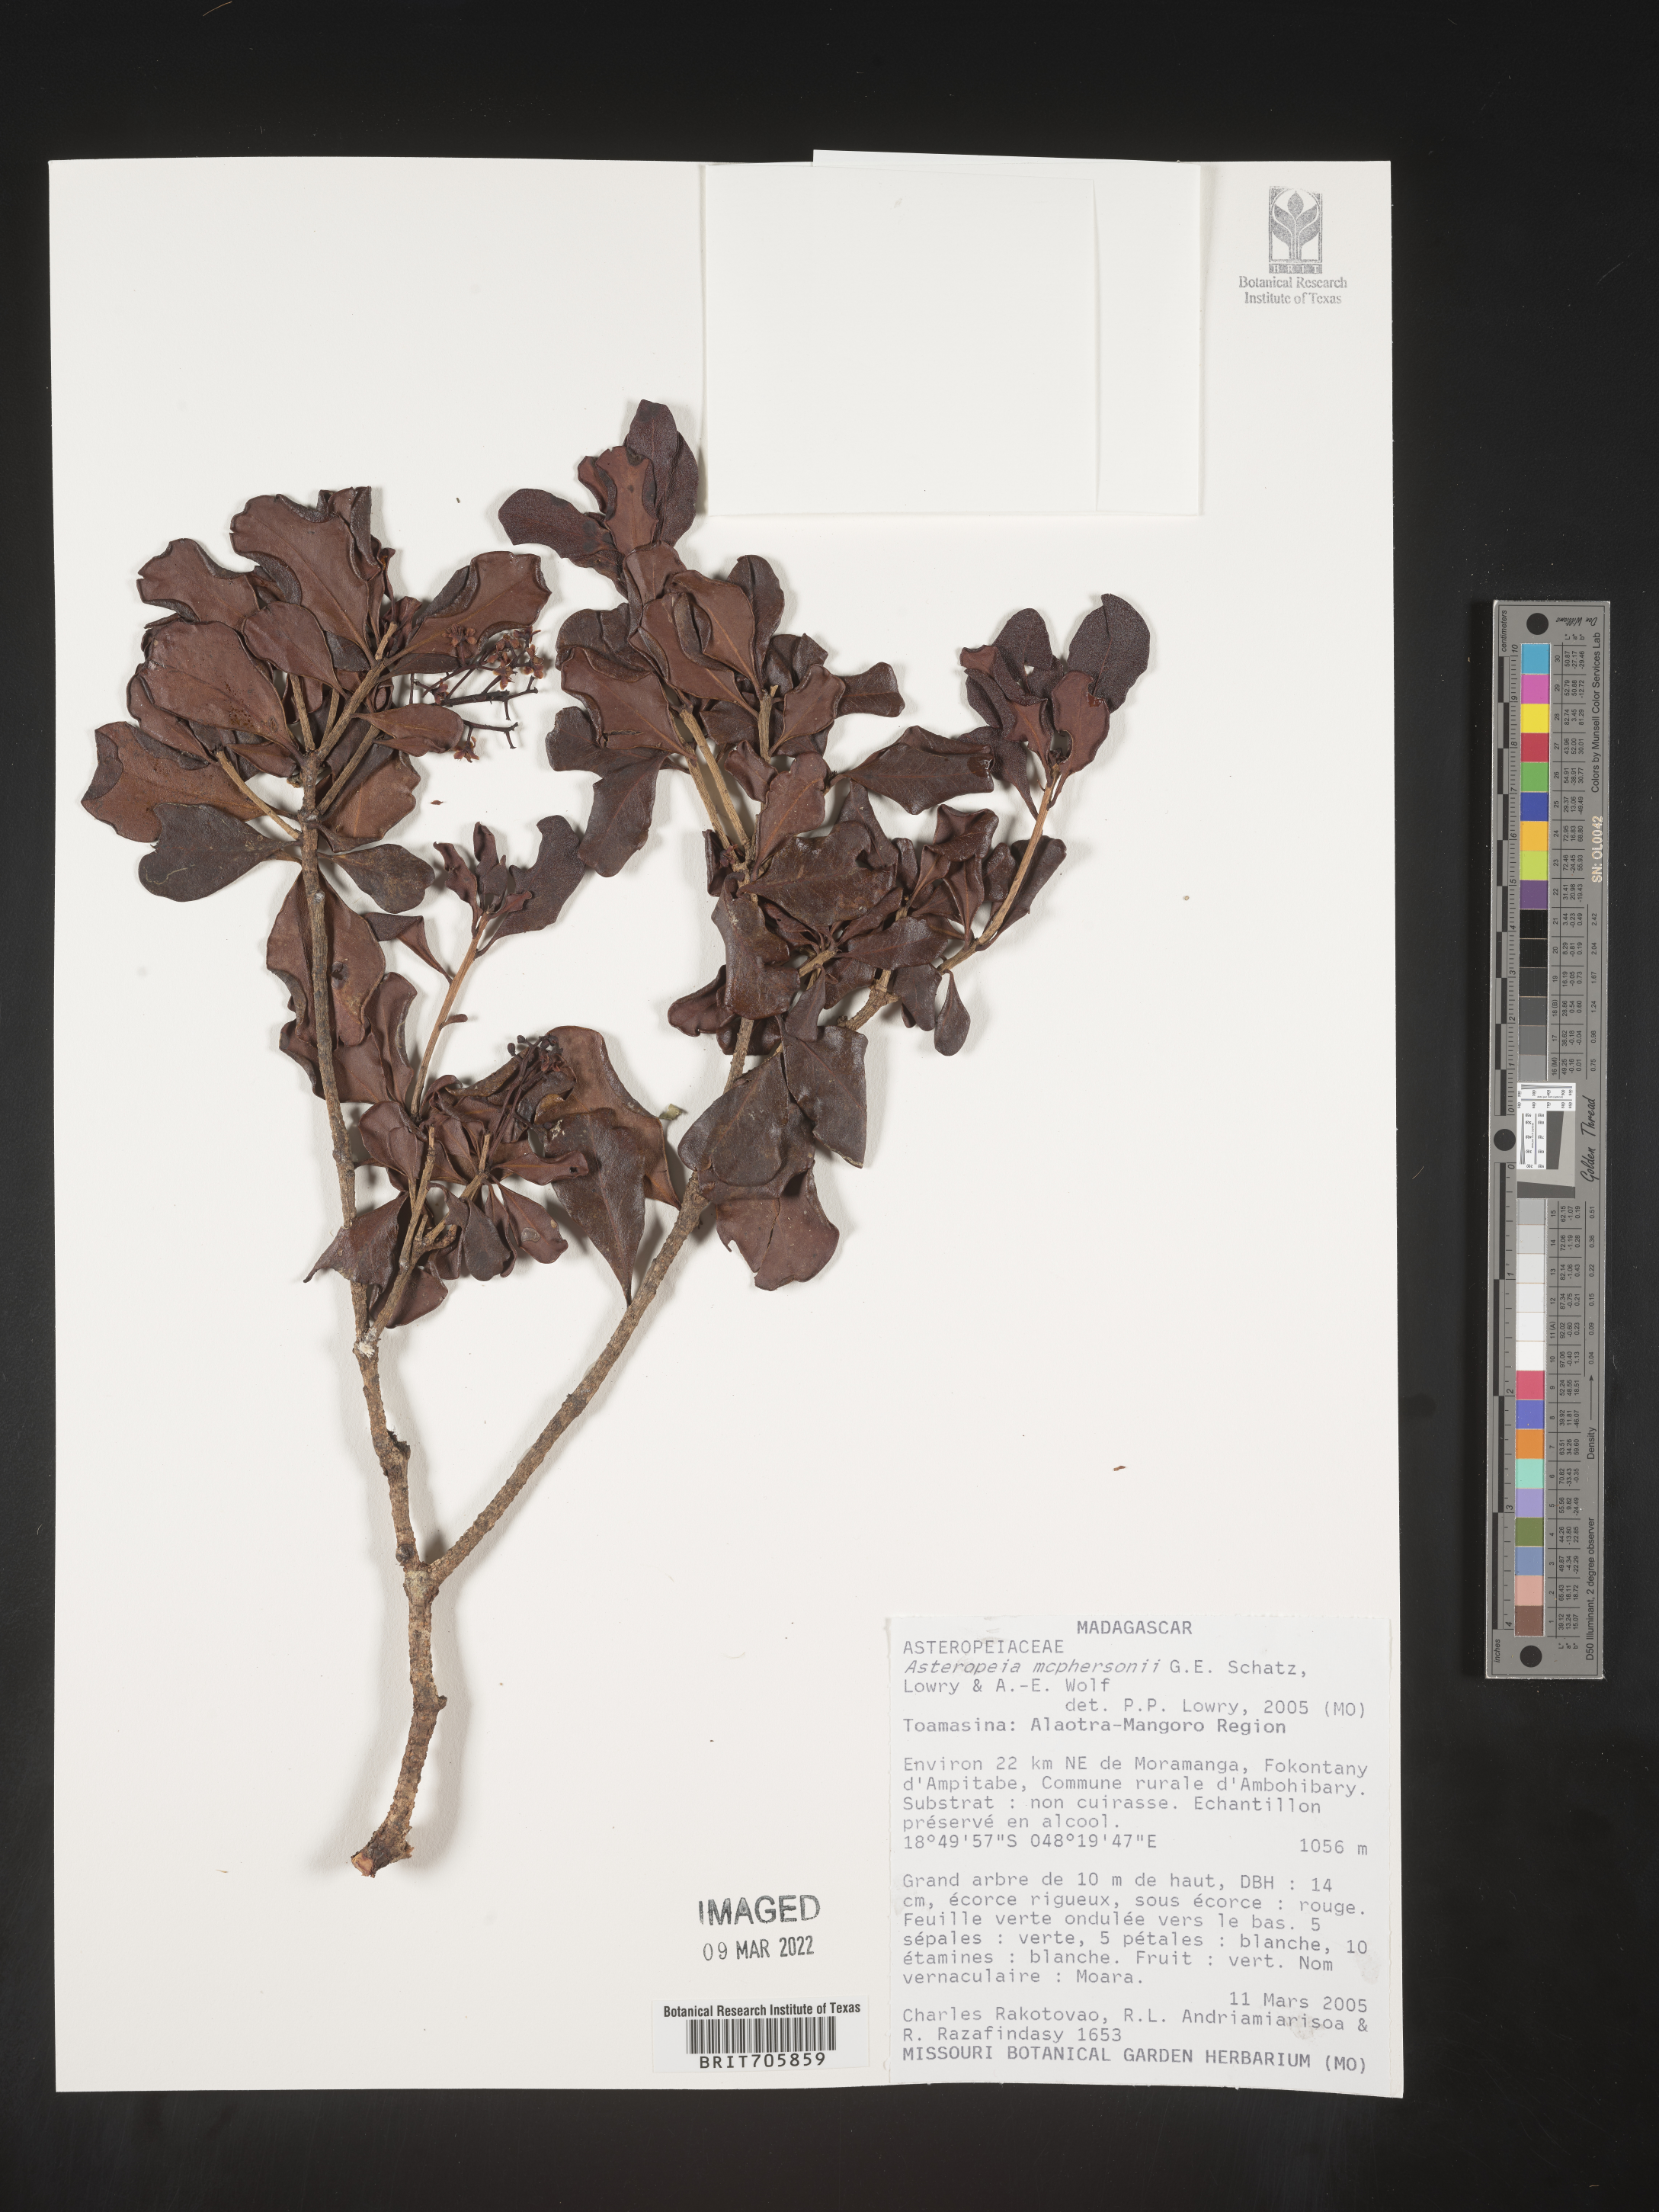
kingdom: Plantae
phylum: Tracheophyta
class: Magnoliopsida
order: Caryophyllales
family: Asteropeiaceae
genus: Asteropeia
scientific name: Asteropeia
